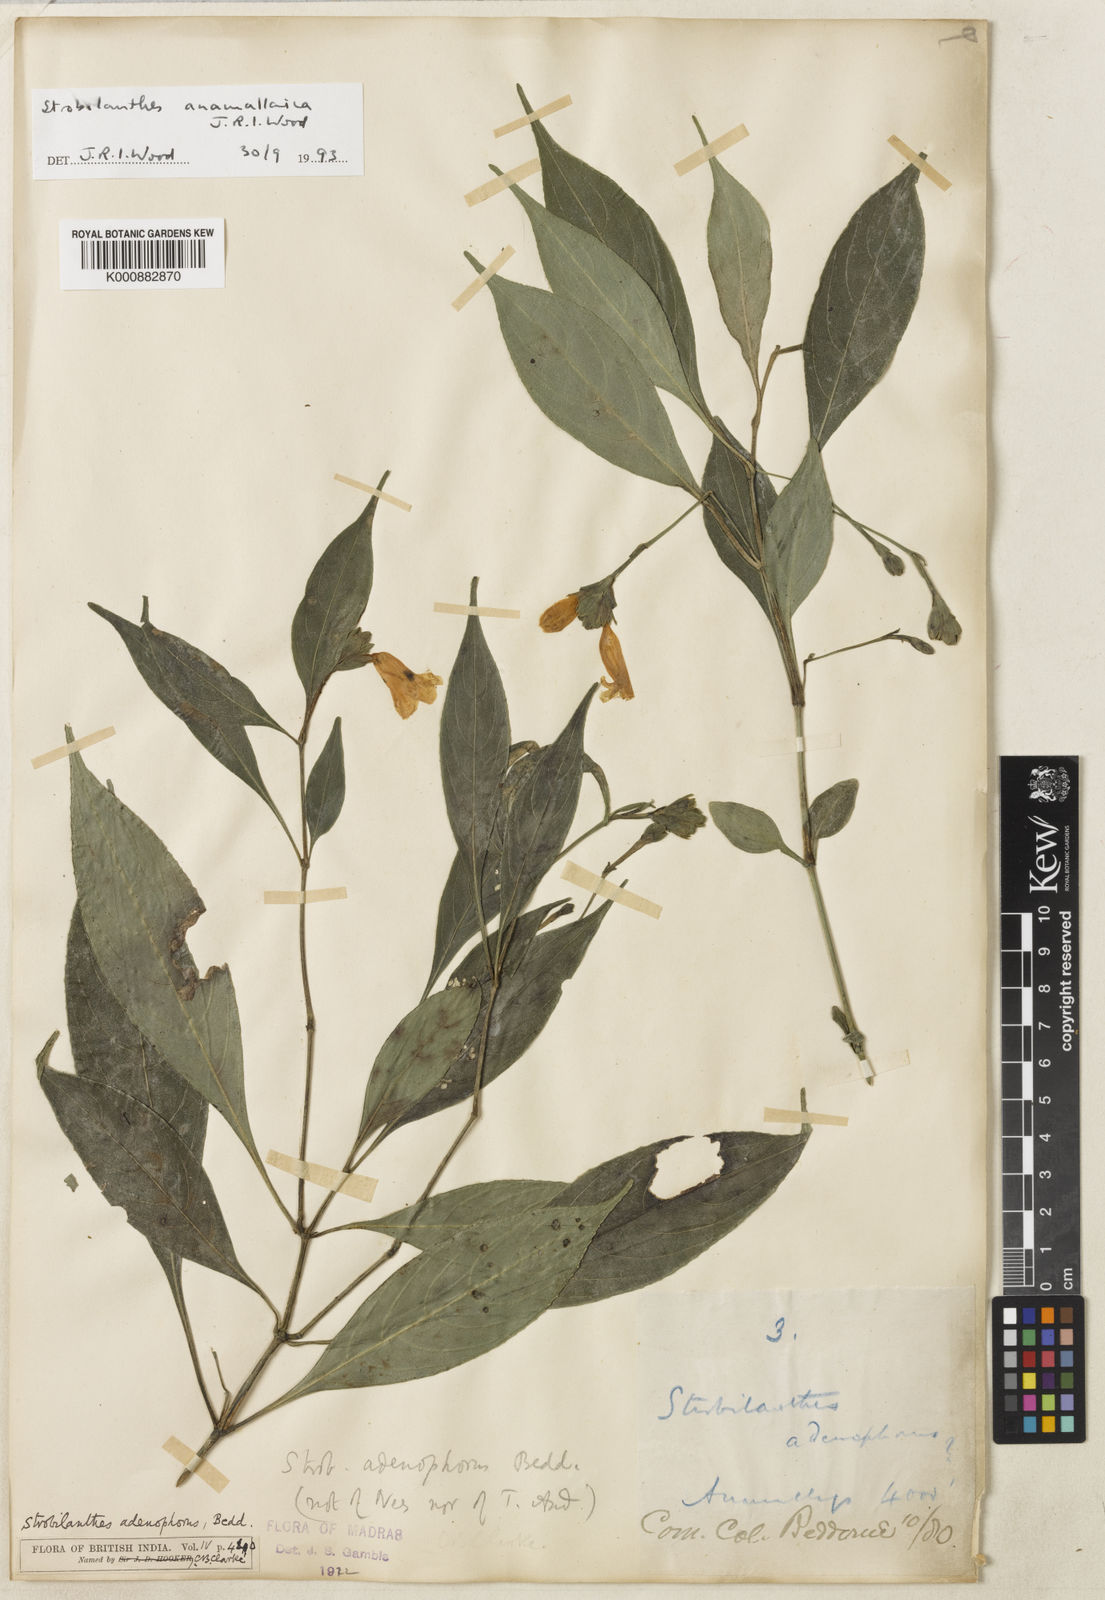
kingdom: Plantae
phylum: Tracheophyta
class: Magnoliopsida
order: Lamiales
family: Acanthaceae
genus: Strobilanthes
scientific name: Strobilanthes gracilis
